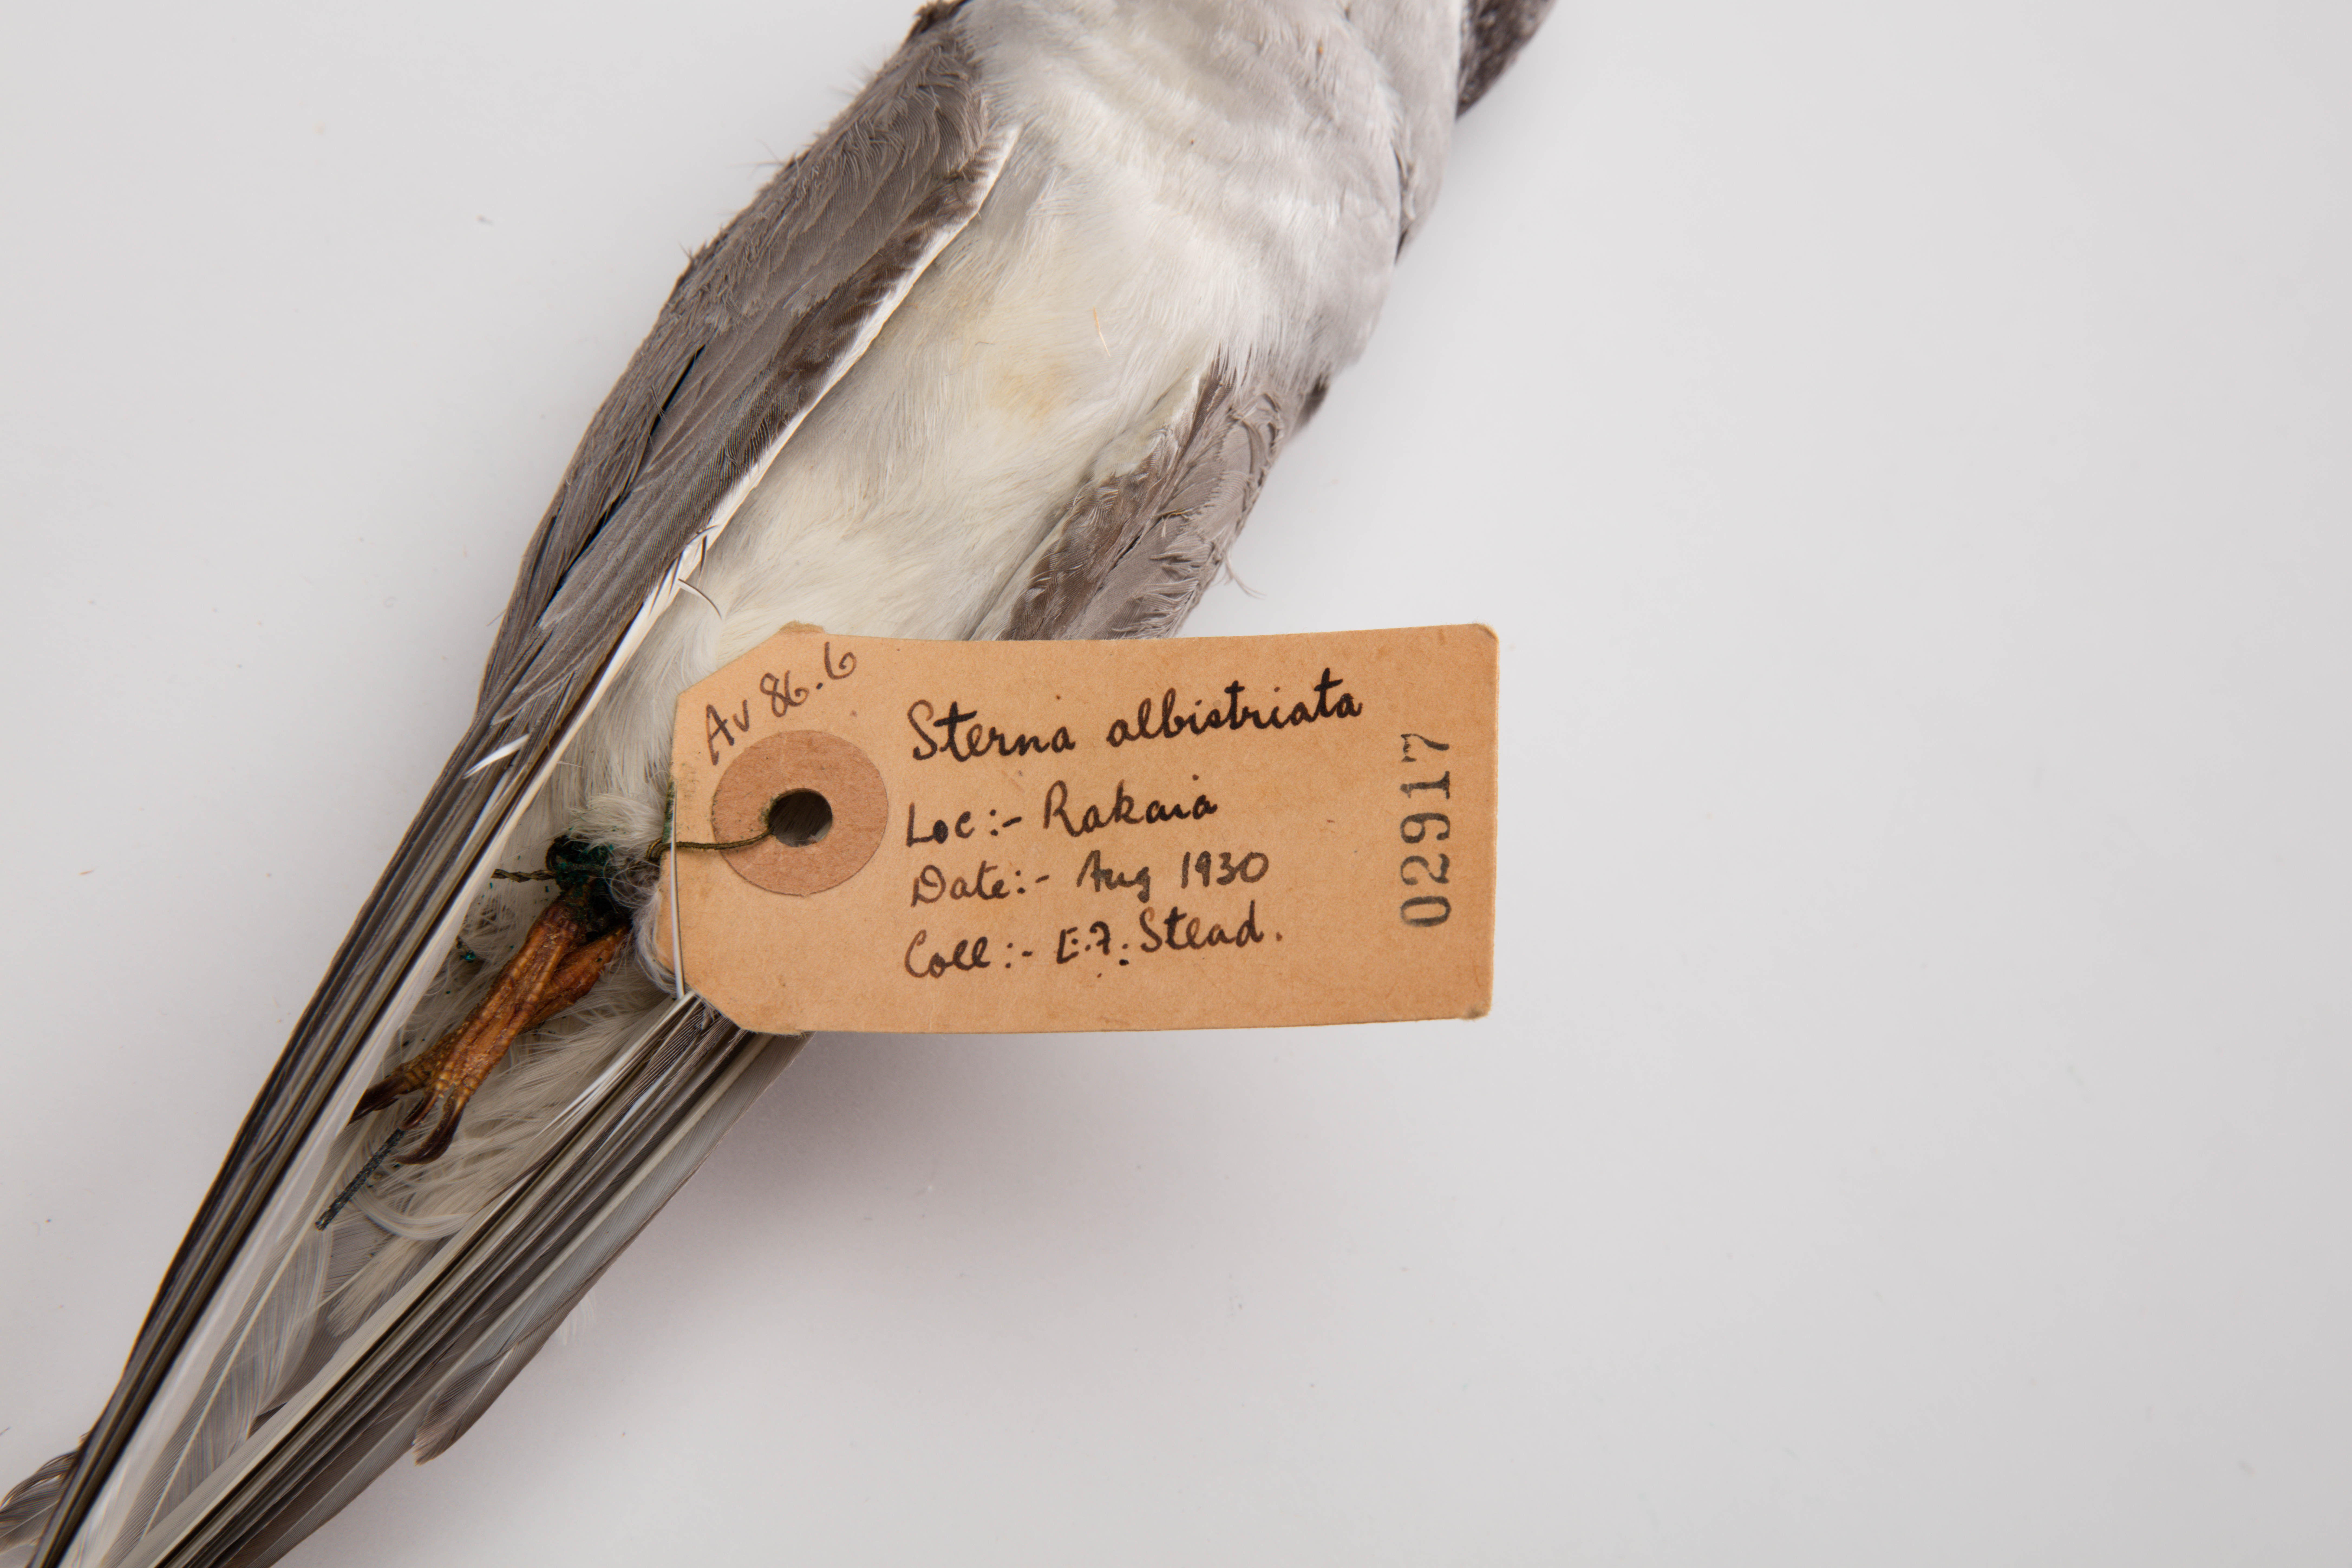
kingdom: Animalia
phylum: Chordata
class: Aves
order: Charadriiformes
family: Laridae
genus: Chlidonias
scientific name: Chlidonias albostriatus
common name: Black-fronted tern
